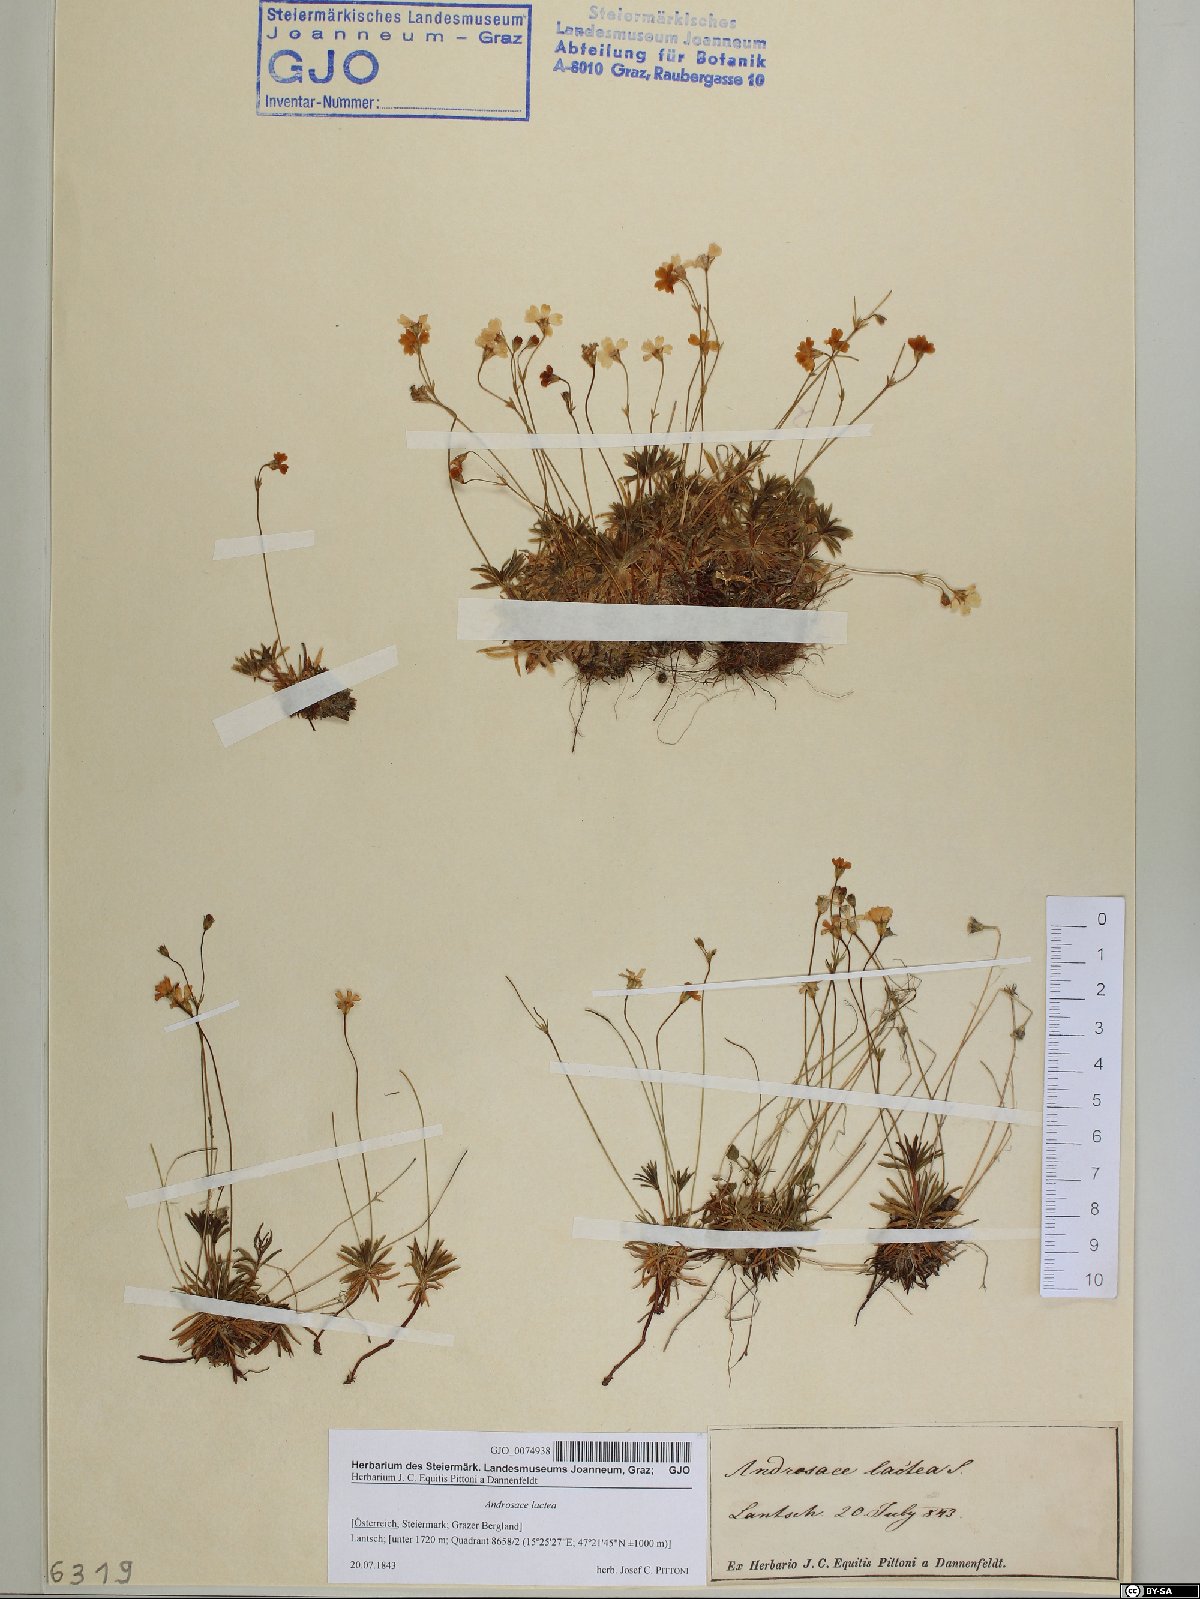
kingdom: Plantae
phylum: Tracheophyta
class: Magnoliopsida
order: Ericales
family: Primulaceae
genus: Androsace
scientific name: Androsace lactea
